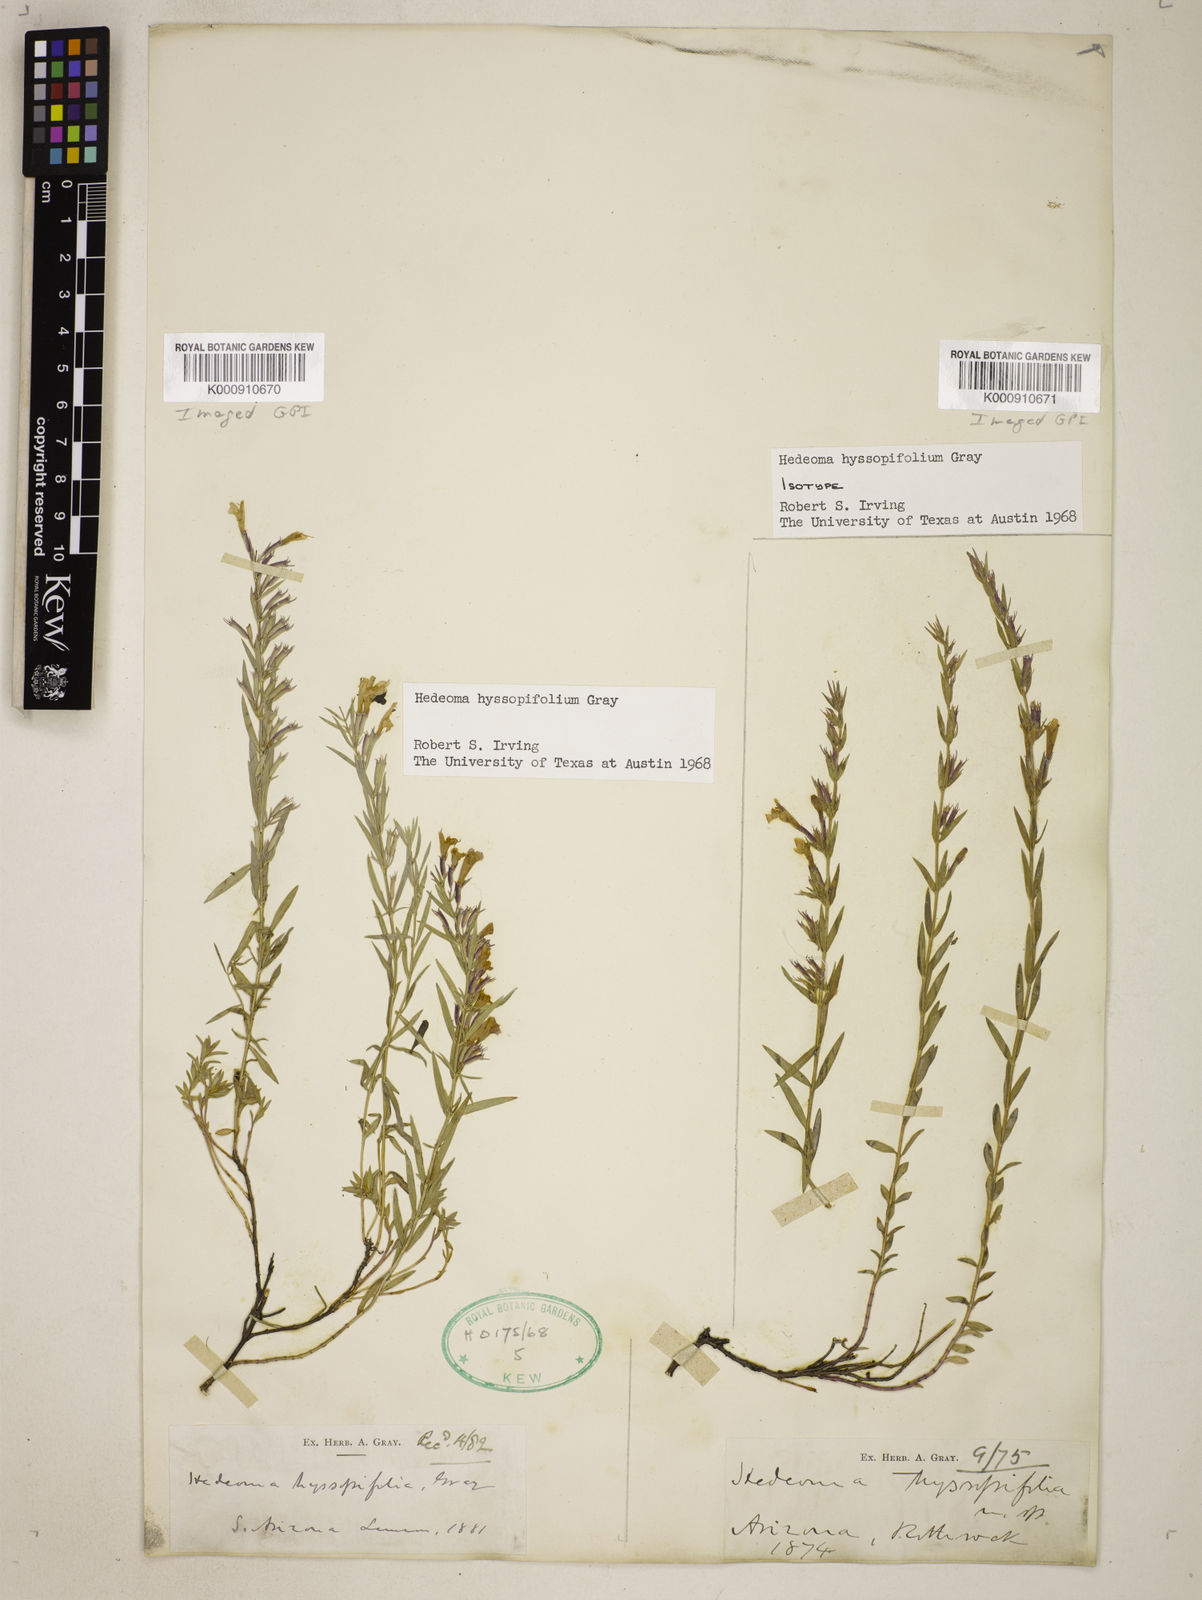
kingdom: Plantae
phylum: Tracheophyta
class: Magnoliopsida
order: Lamiales
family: Lamiaceae
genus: Hedeoma
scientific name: Hedeoma hyssopifolia
